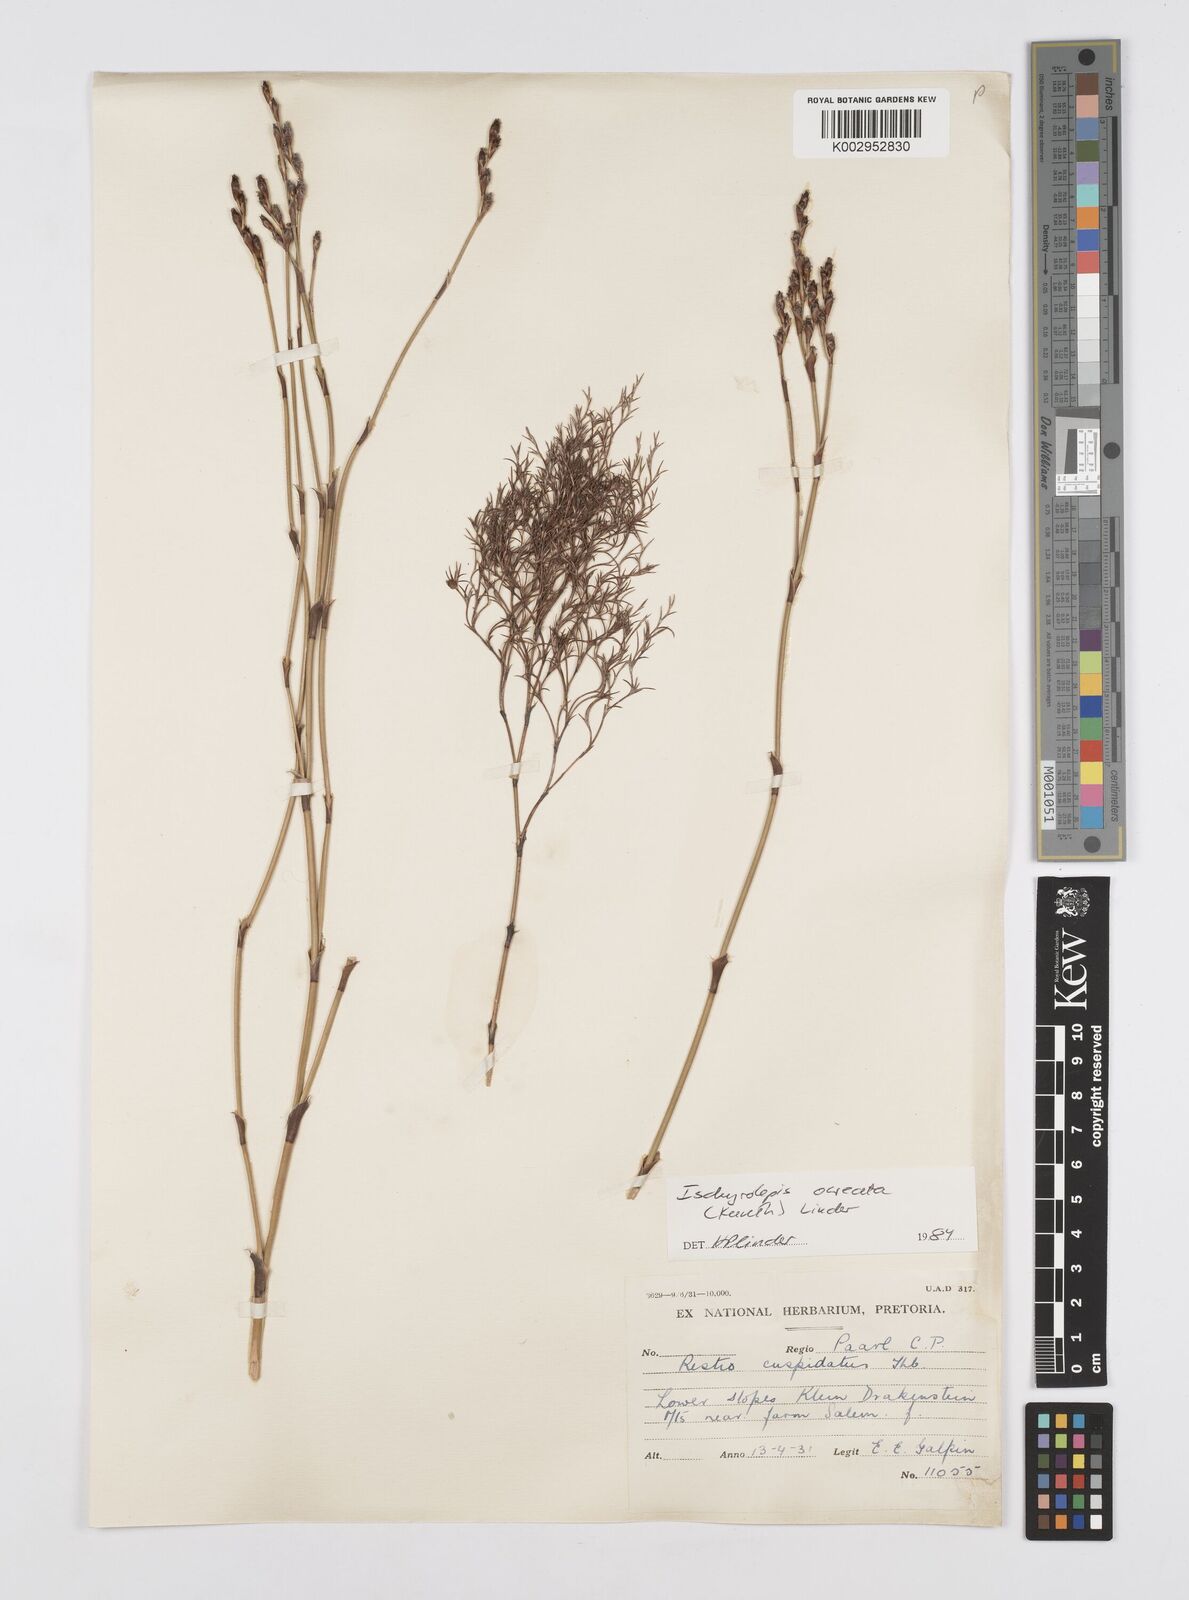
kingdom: Plantae
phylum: Tracheophyta
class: Liliopsida
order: Poales
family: Restionaceae
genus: Restio
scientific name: Restio ocreatus
